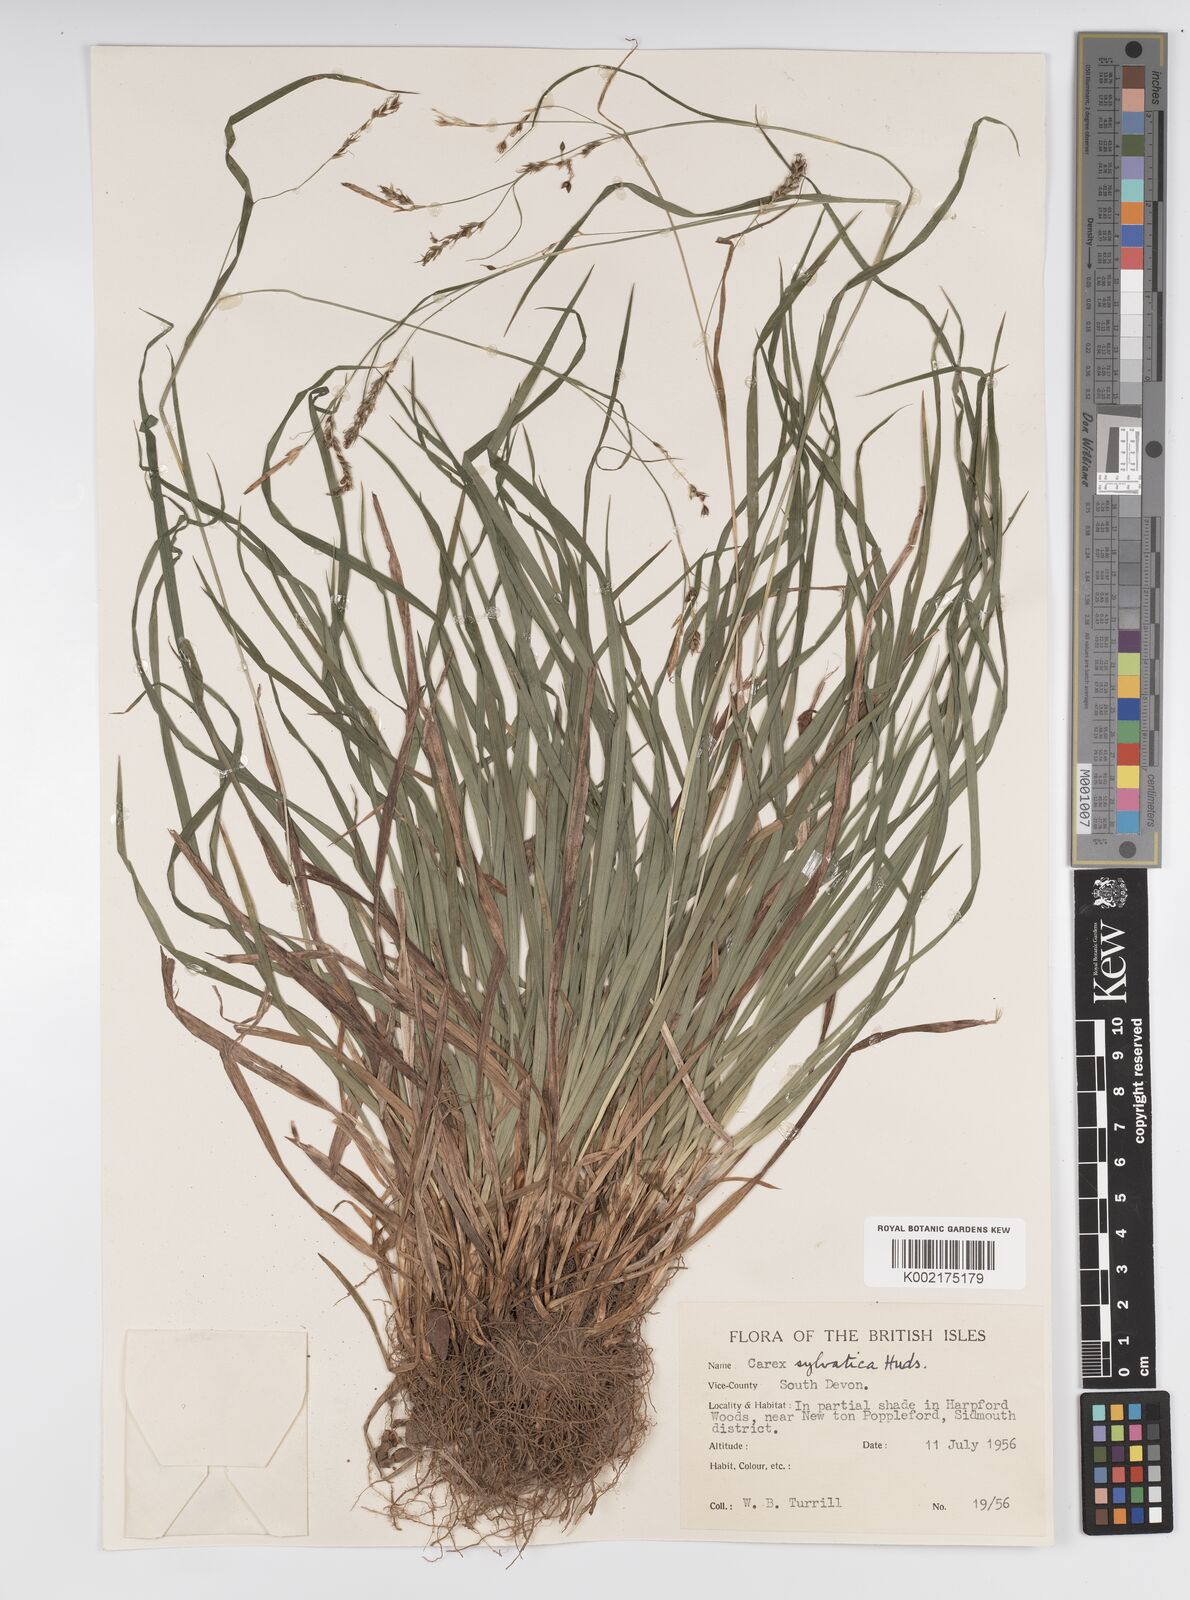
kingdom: Plantae
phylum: Tracheophyta
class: Liliopsida
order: Poales
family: Cyperaceae
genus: Carex
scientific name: Carex sylvatica
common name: Wood-sedge
